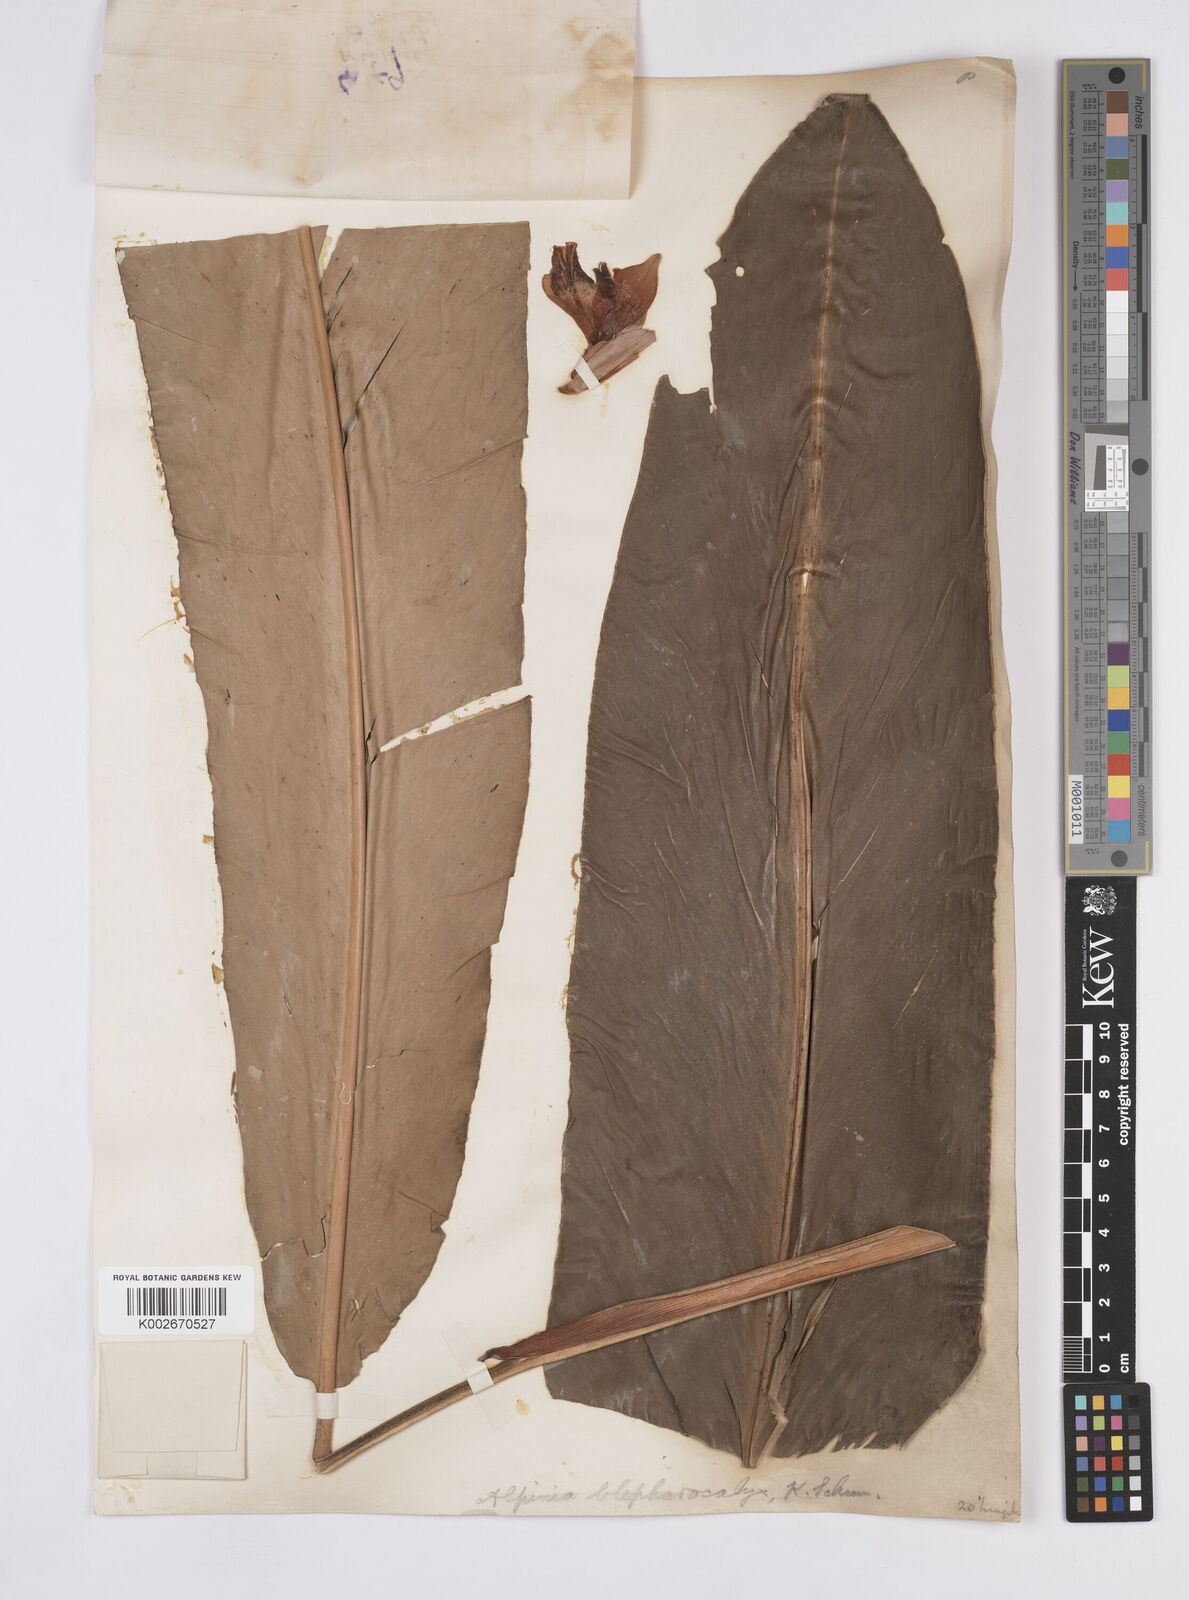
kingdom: Plantae
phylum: Tracheophyta
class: Liliopsida
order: Zingiberales
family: Zingiberaceae
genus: Alpinia
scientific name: Alpinia roxburghii
